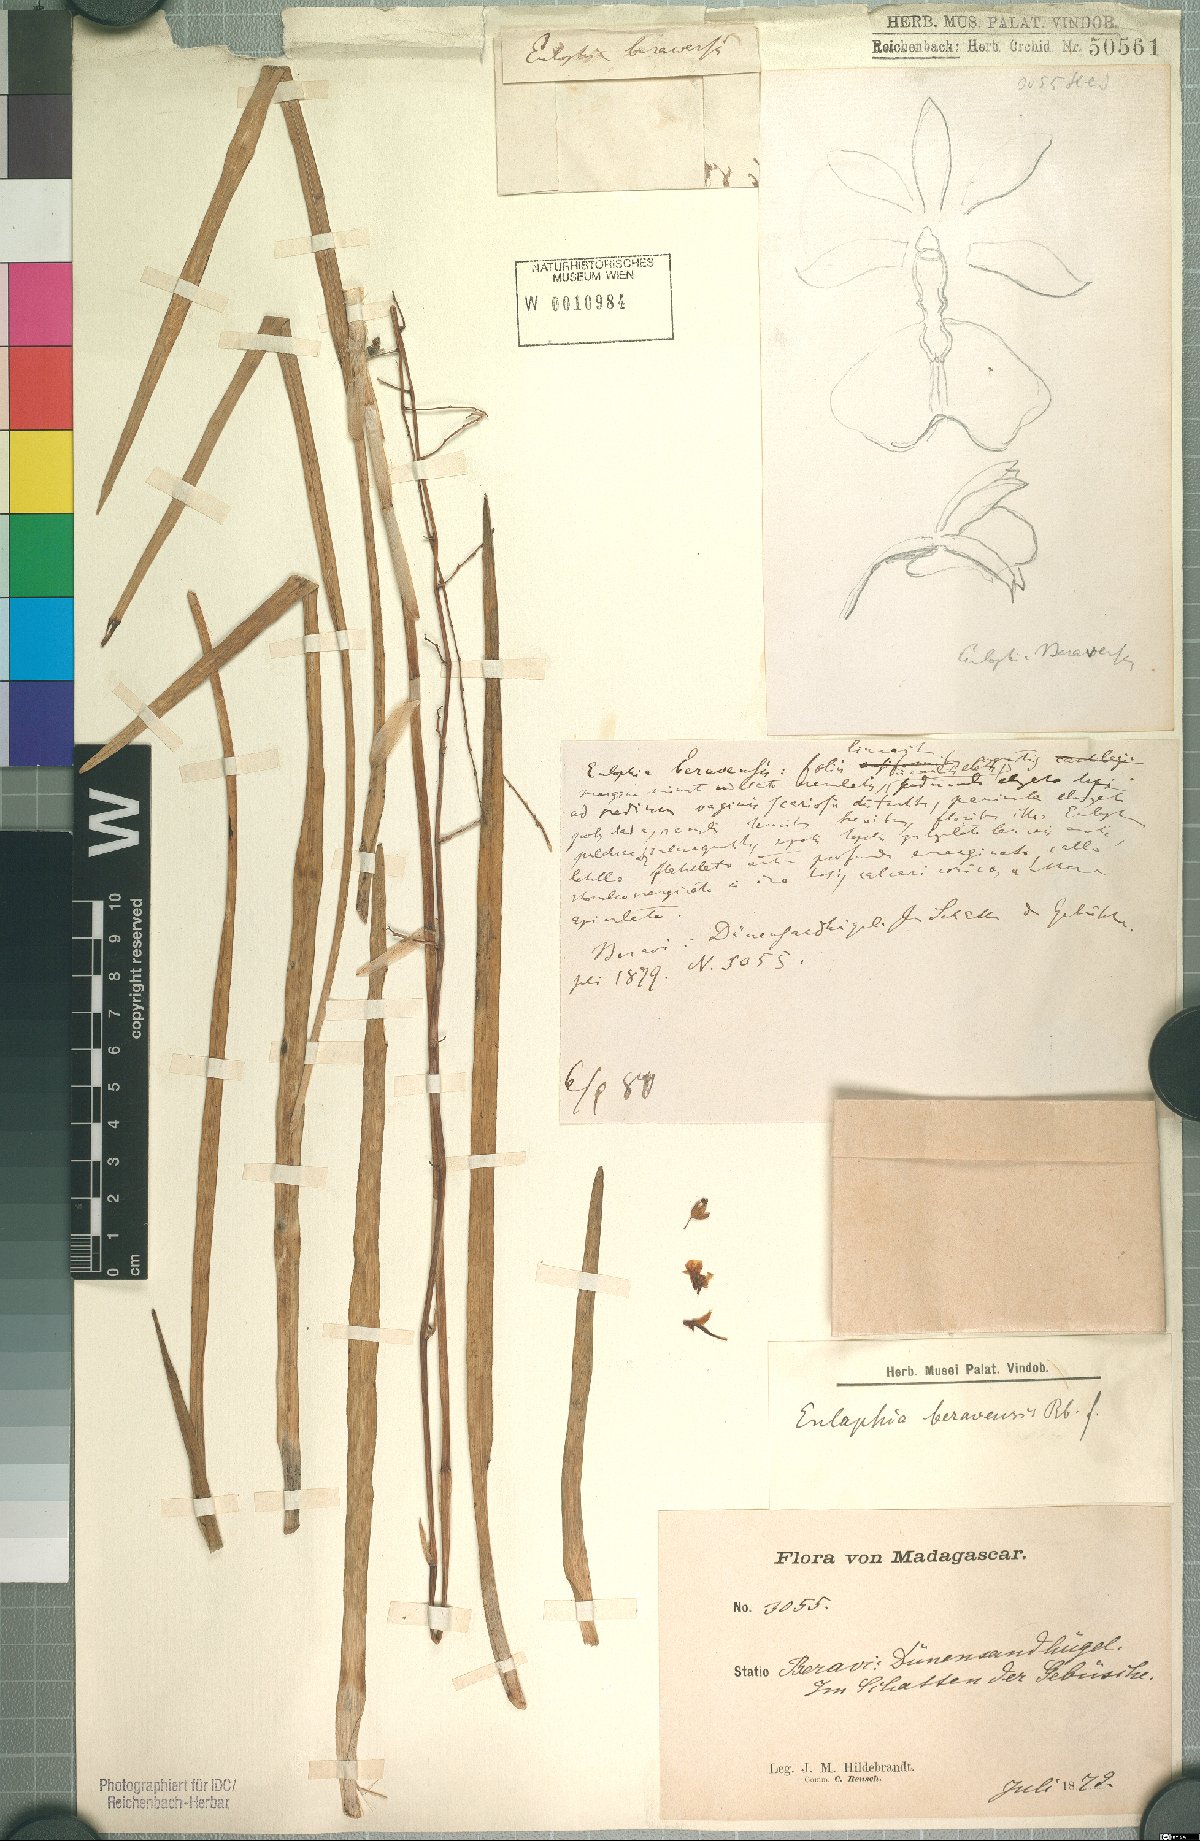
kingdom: Plantae
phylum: Tracheophyta
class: Liliopsida
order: Asparagales
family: Orchidaceae
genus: Eulophia
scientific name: Eulophia beravensis
